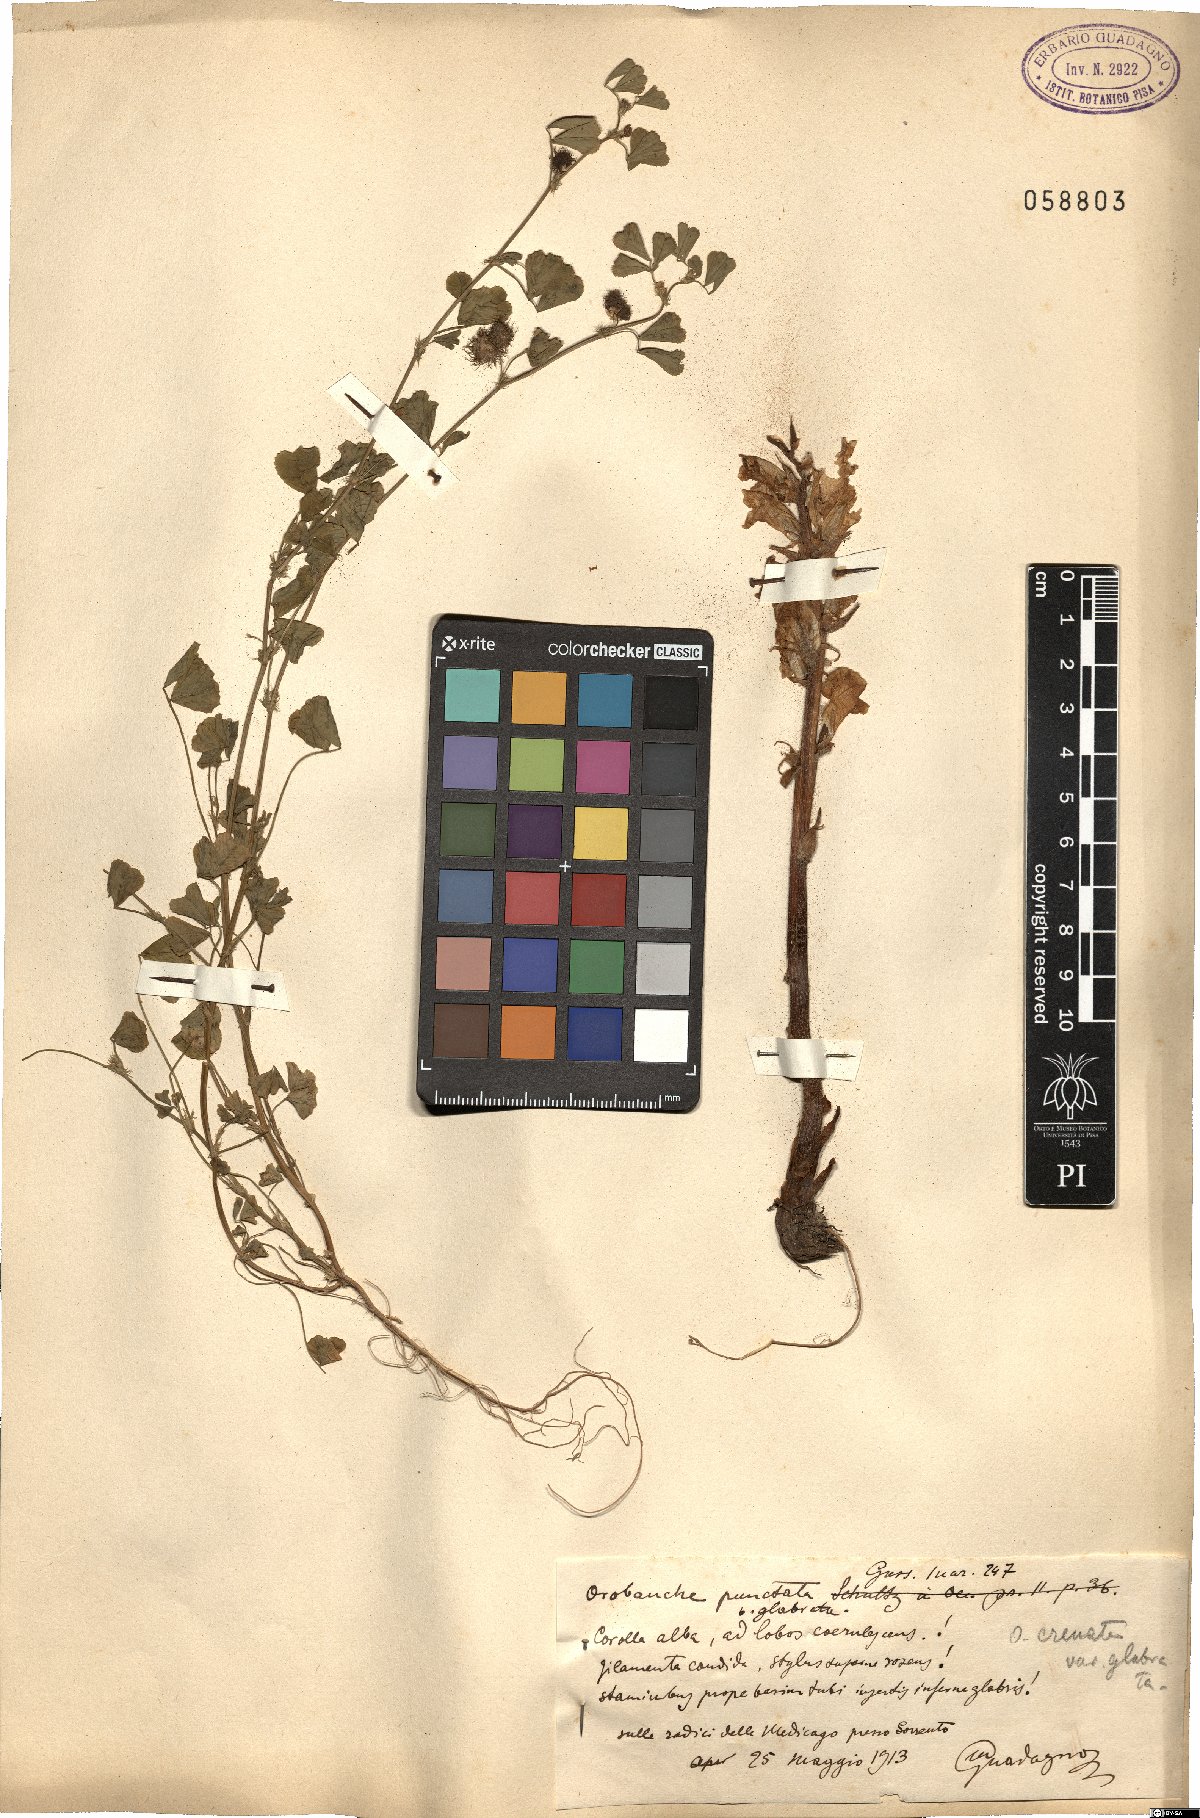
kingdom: Plantae
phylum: Tracheophyta
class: Magnoliopsida
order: Lamiales
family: Orobanchaceae
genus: Orobanche
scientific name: Orobanche alba
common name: Thyme broomrape
